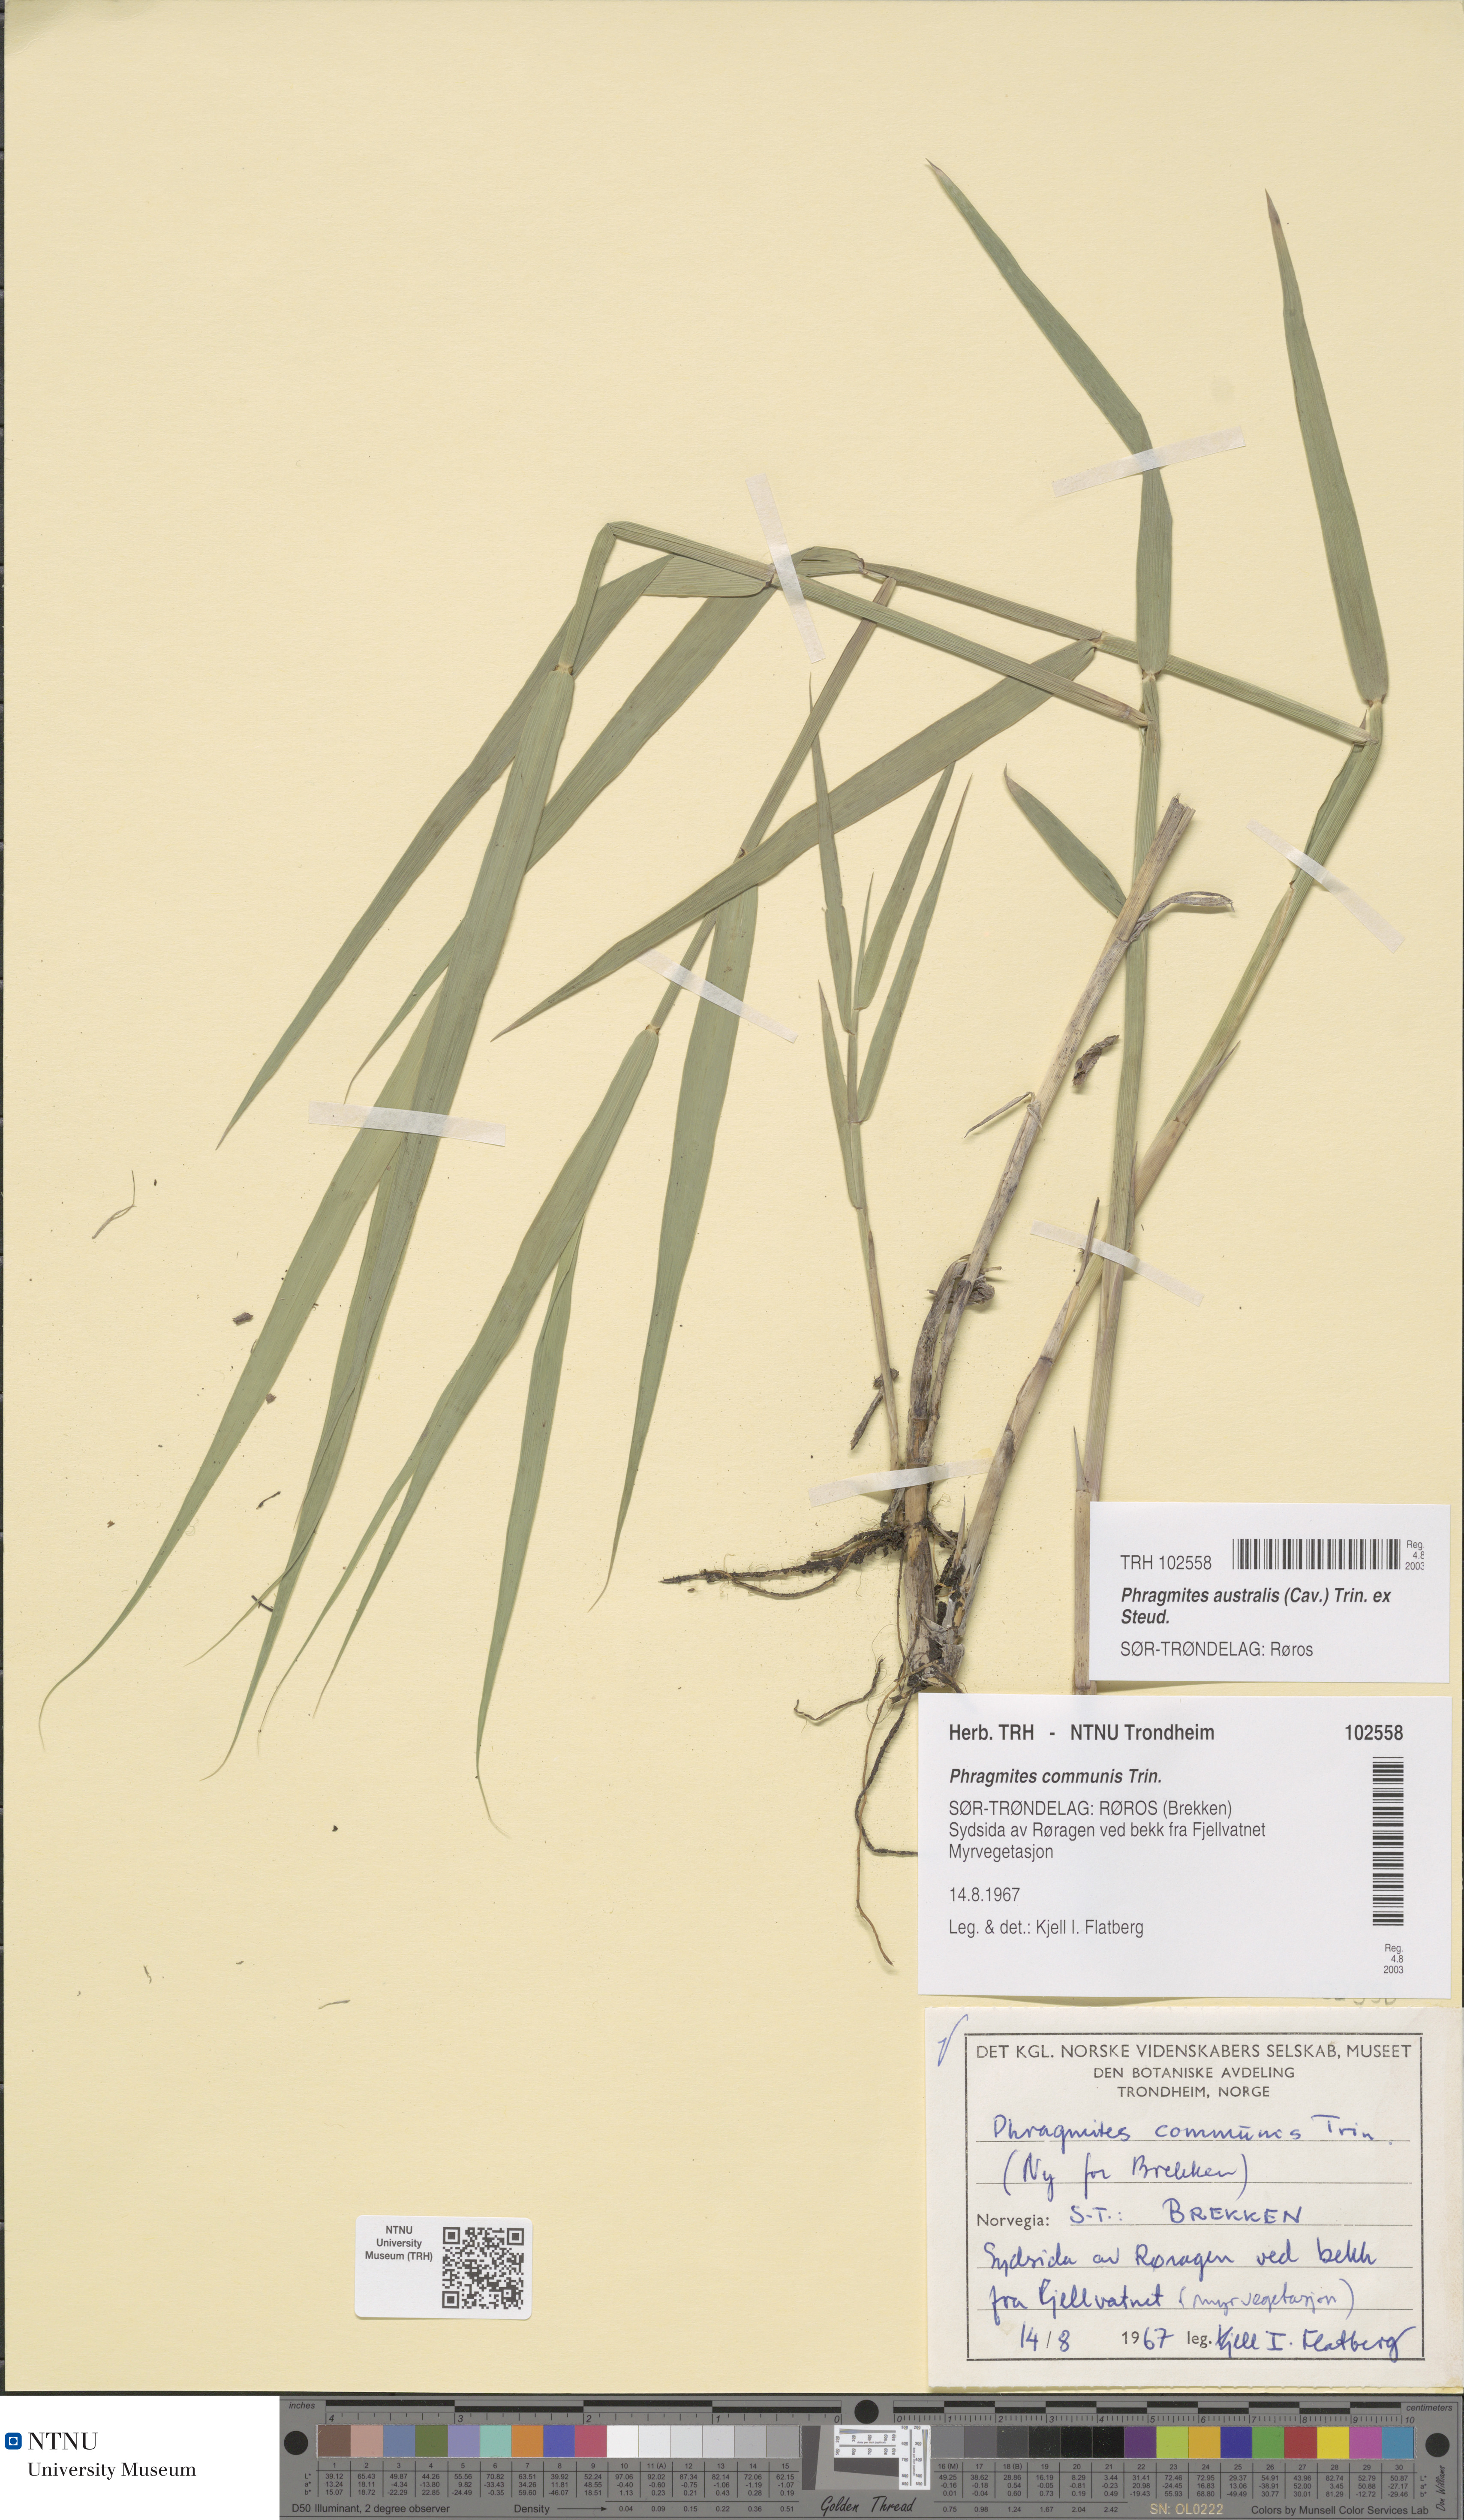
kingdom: Plantae
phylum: Tracheophyta
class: Liliopsida
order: Poales
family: Poaceae
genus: Phragmites
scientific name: Phragmites australis
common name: Common reed
